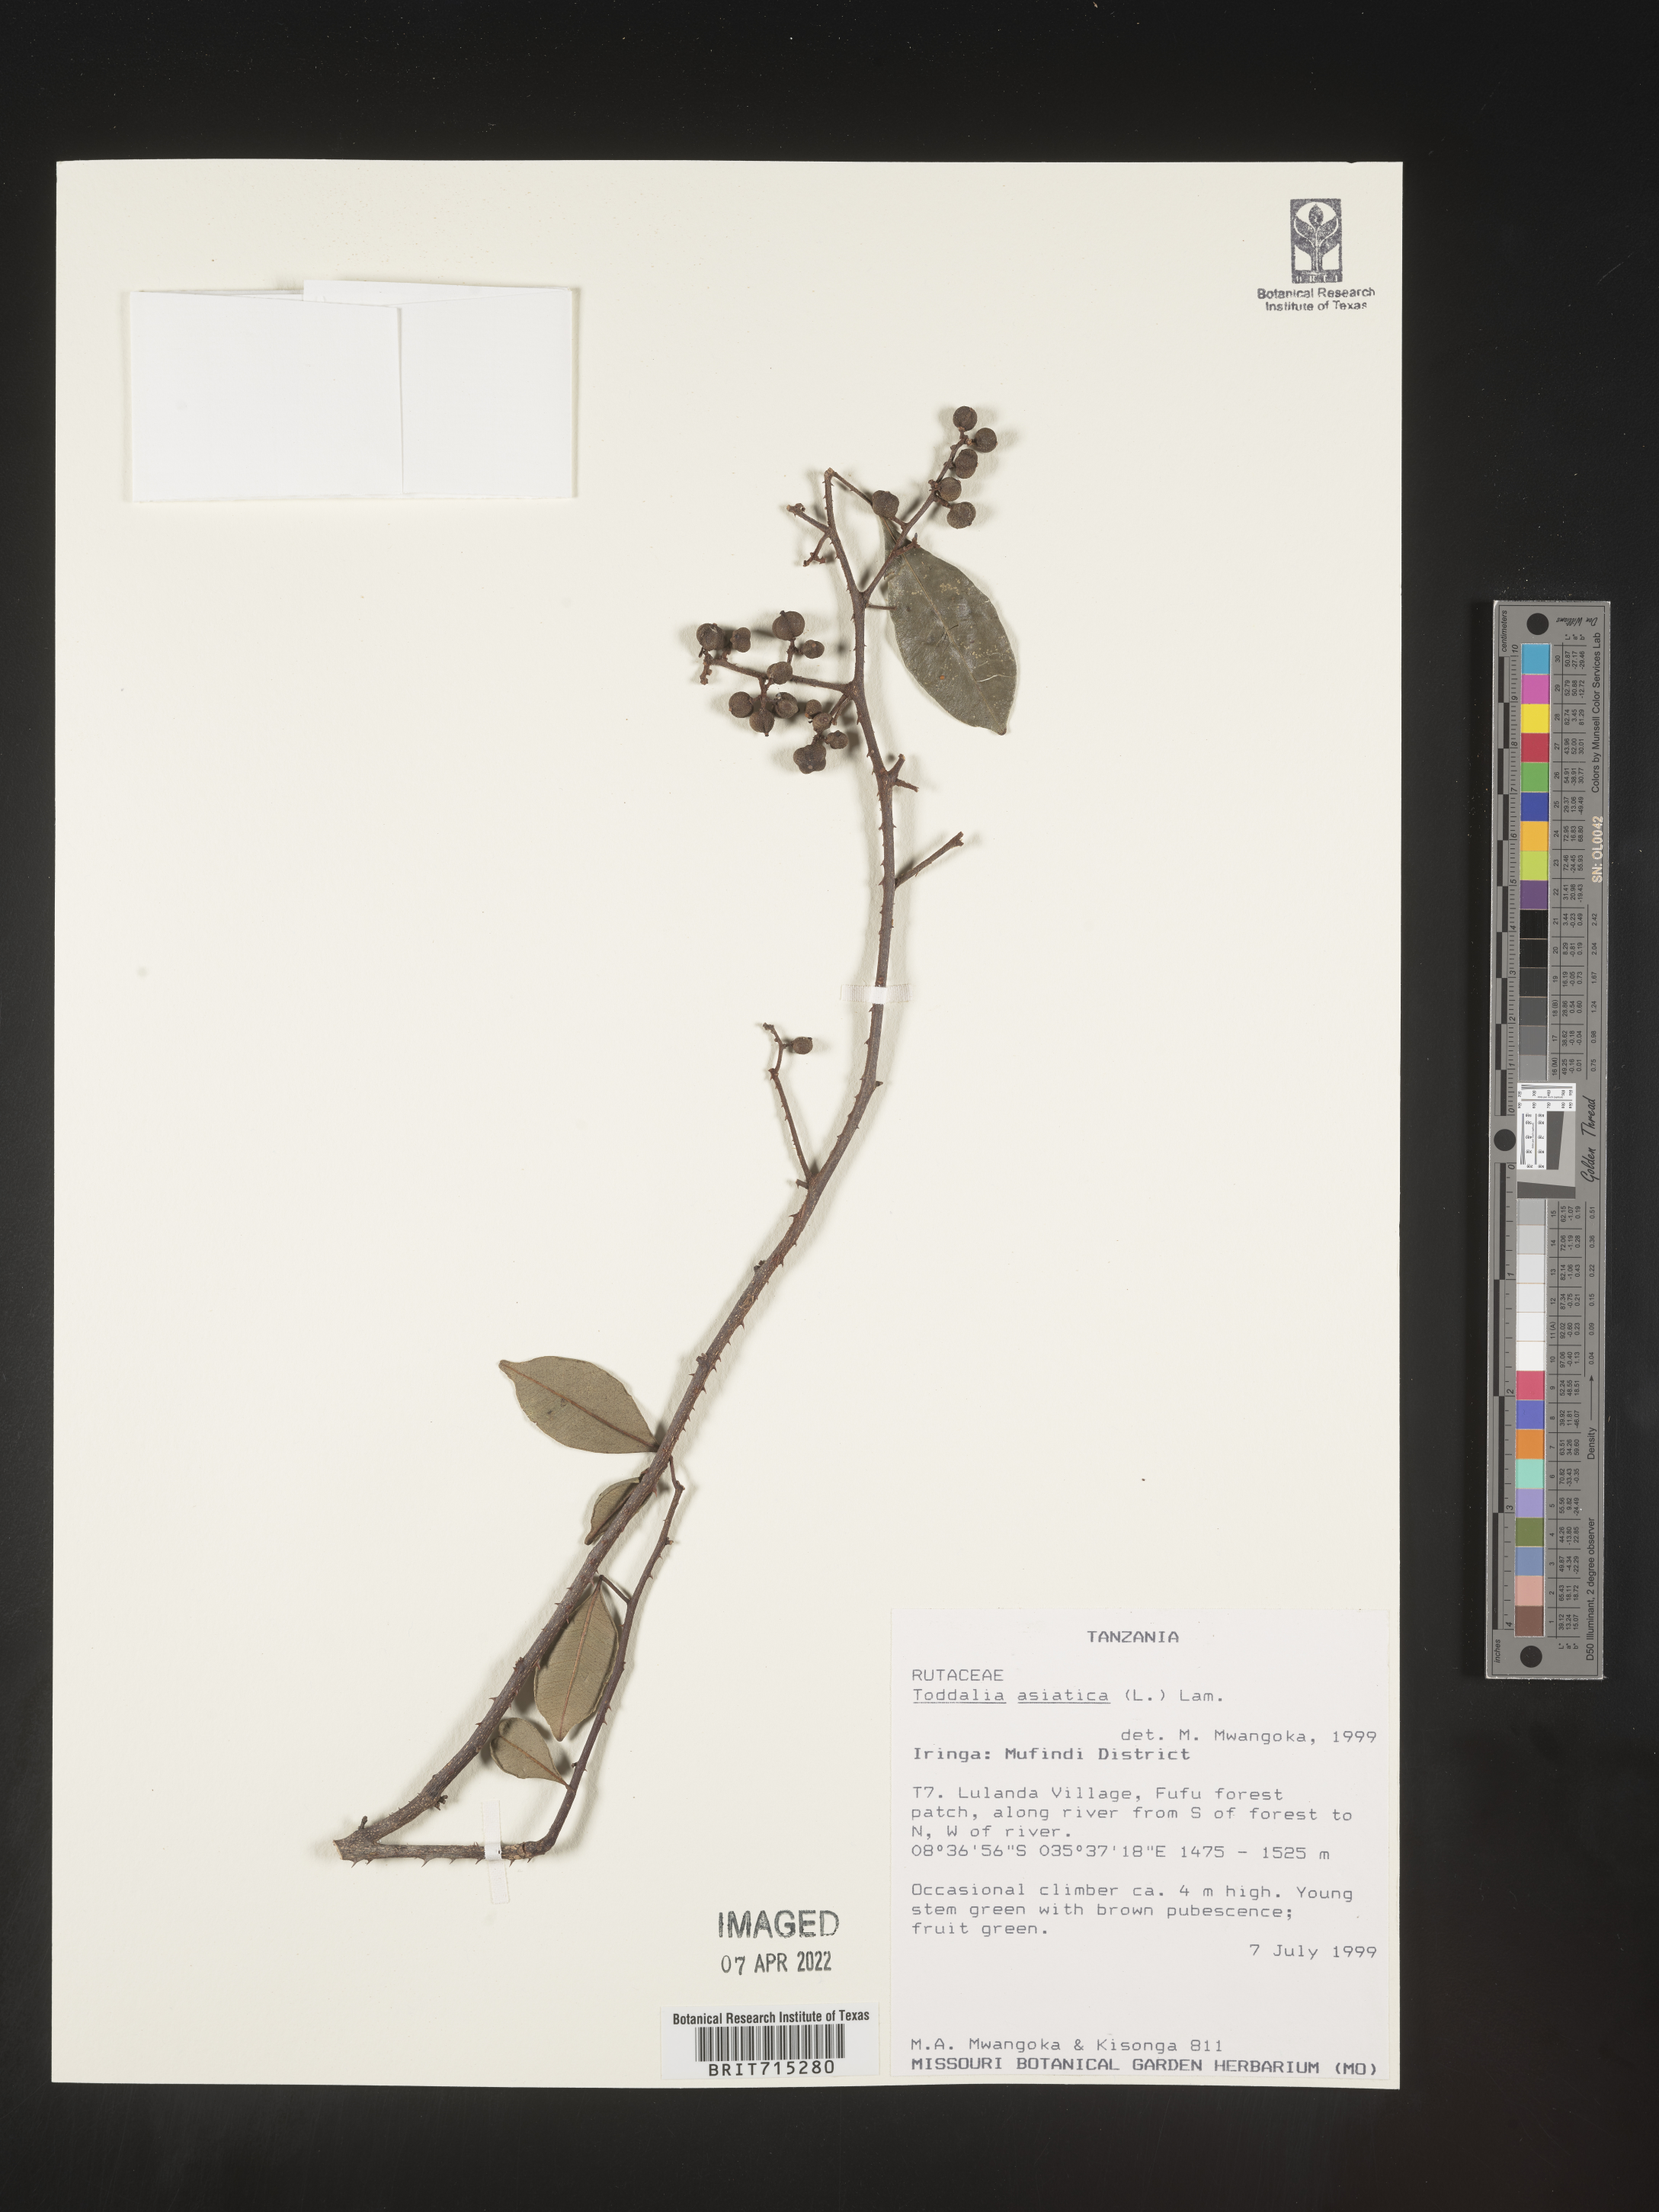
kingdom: Plantae
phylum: Tracheophyta
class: Magnoliopsida
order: Sapindales
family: Rutaceae
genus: Zanthoxylum
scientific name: Zanthoxylum
